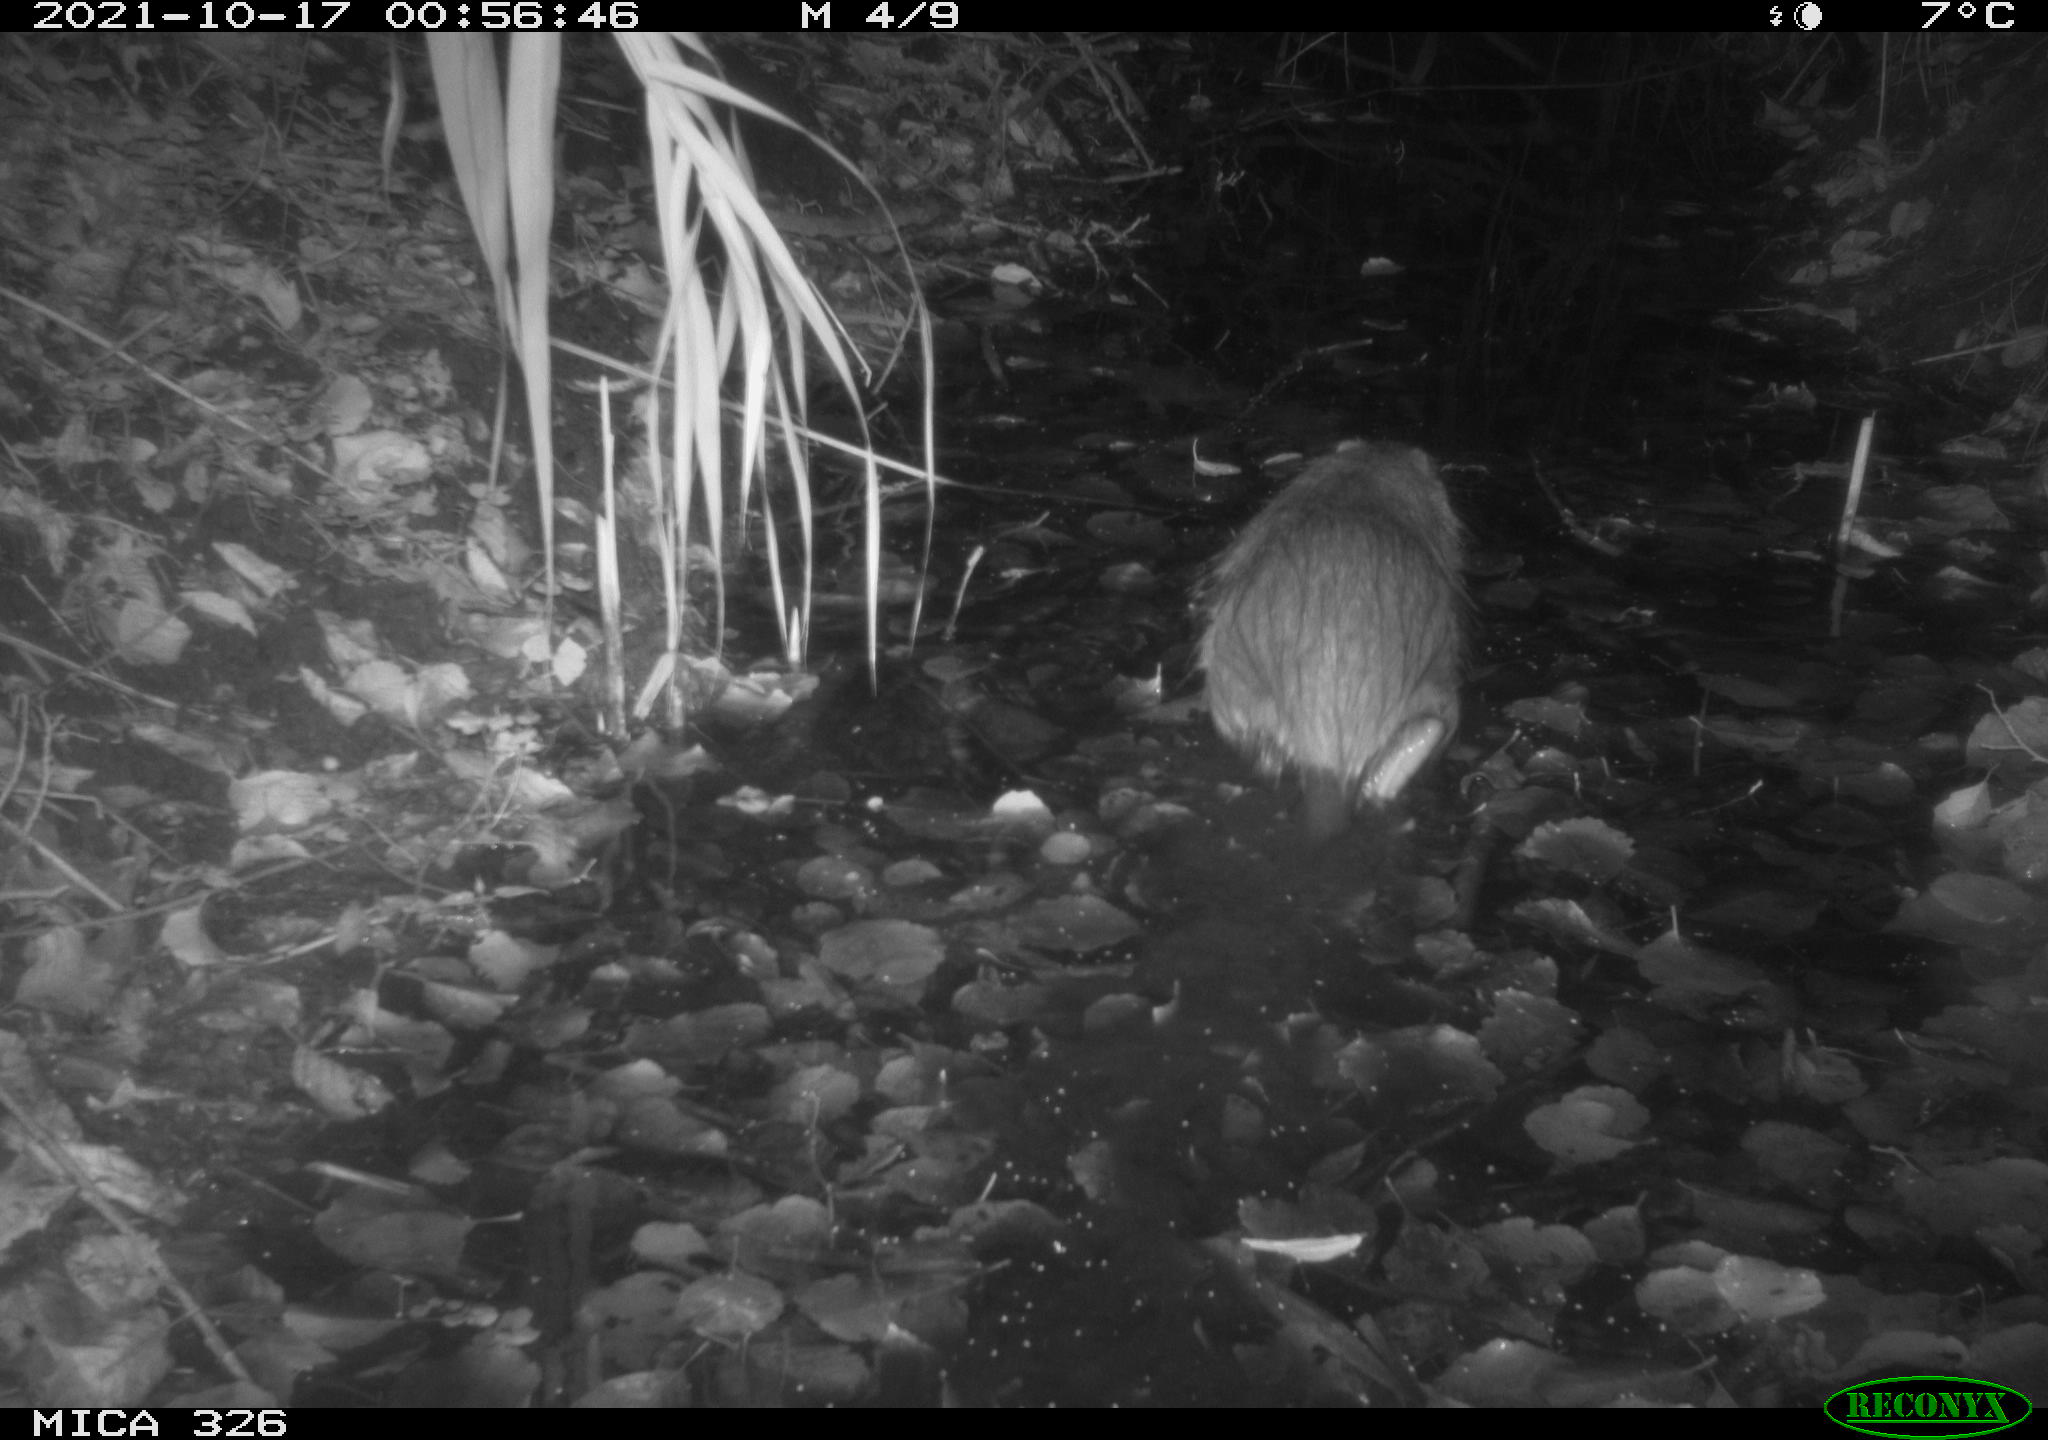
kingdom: Animalia
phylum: Chordata
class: Mammalia
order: Rodentia
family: Myocastoridae
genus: Myocastor
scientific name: Myocastor coypus
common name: Coypu
